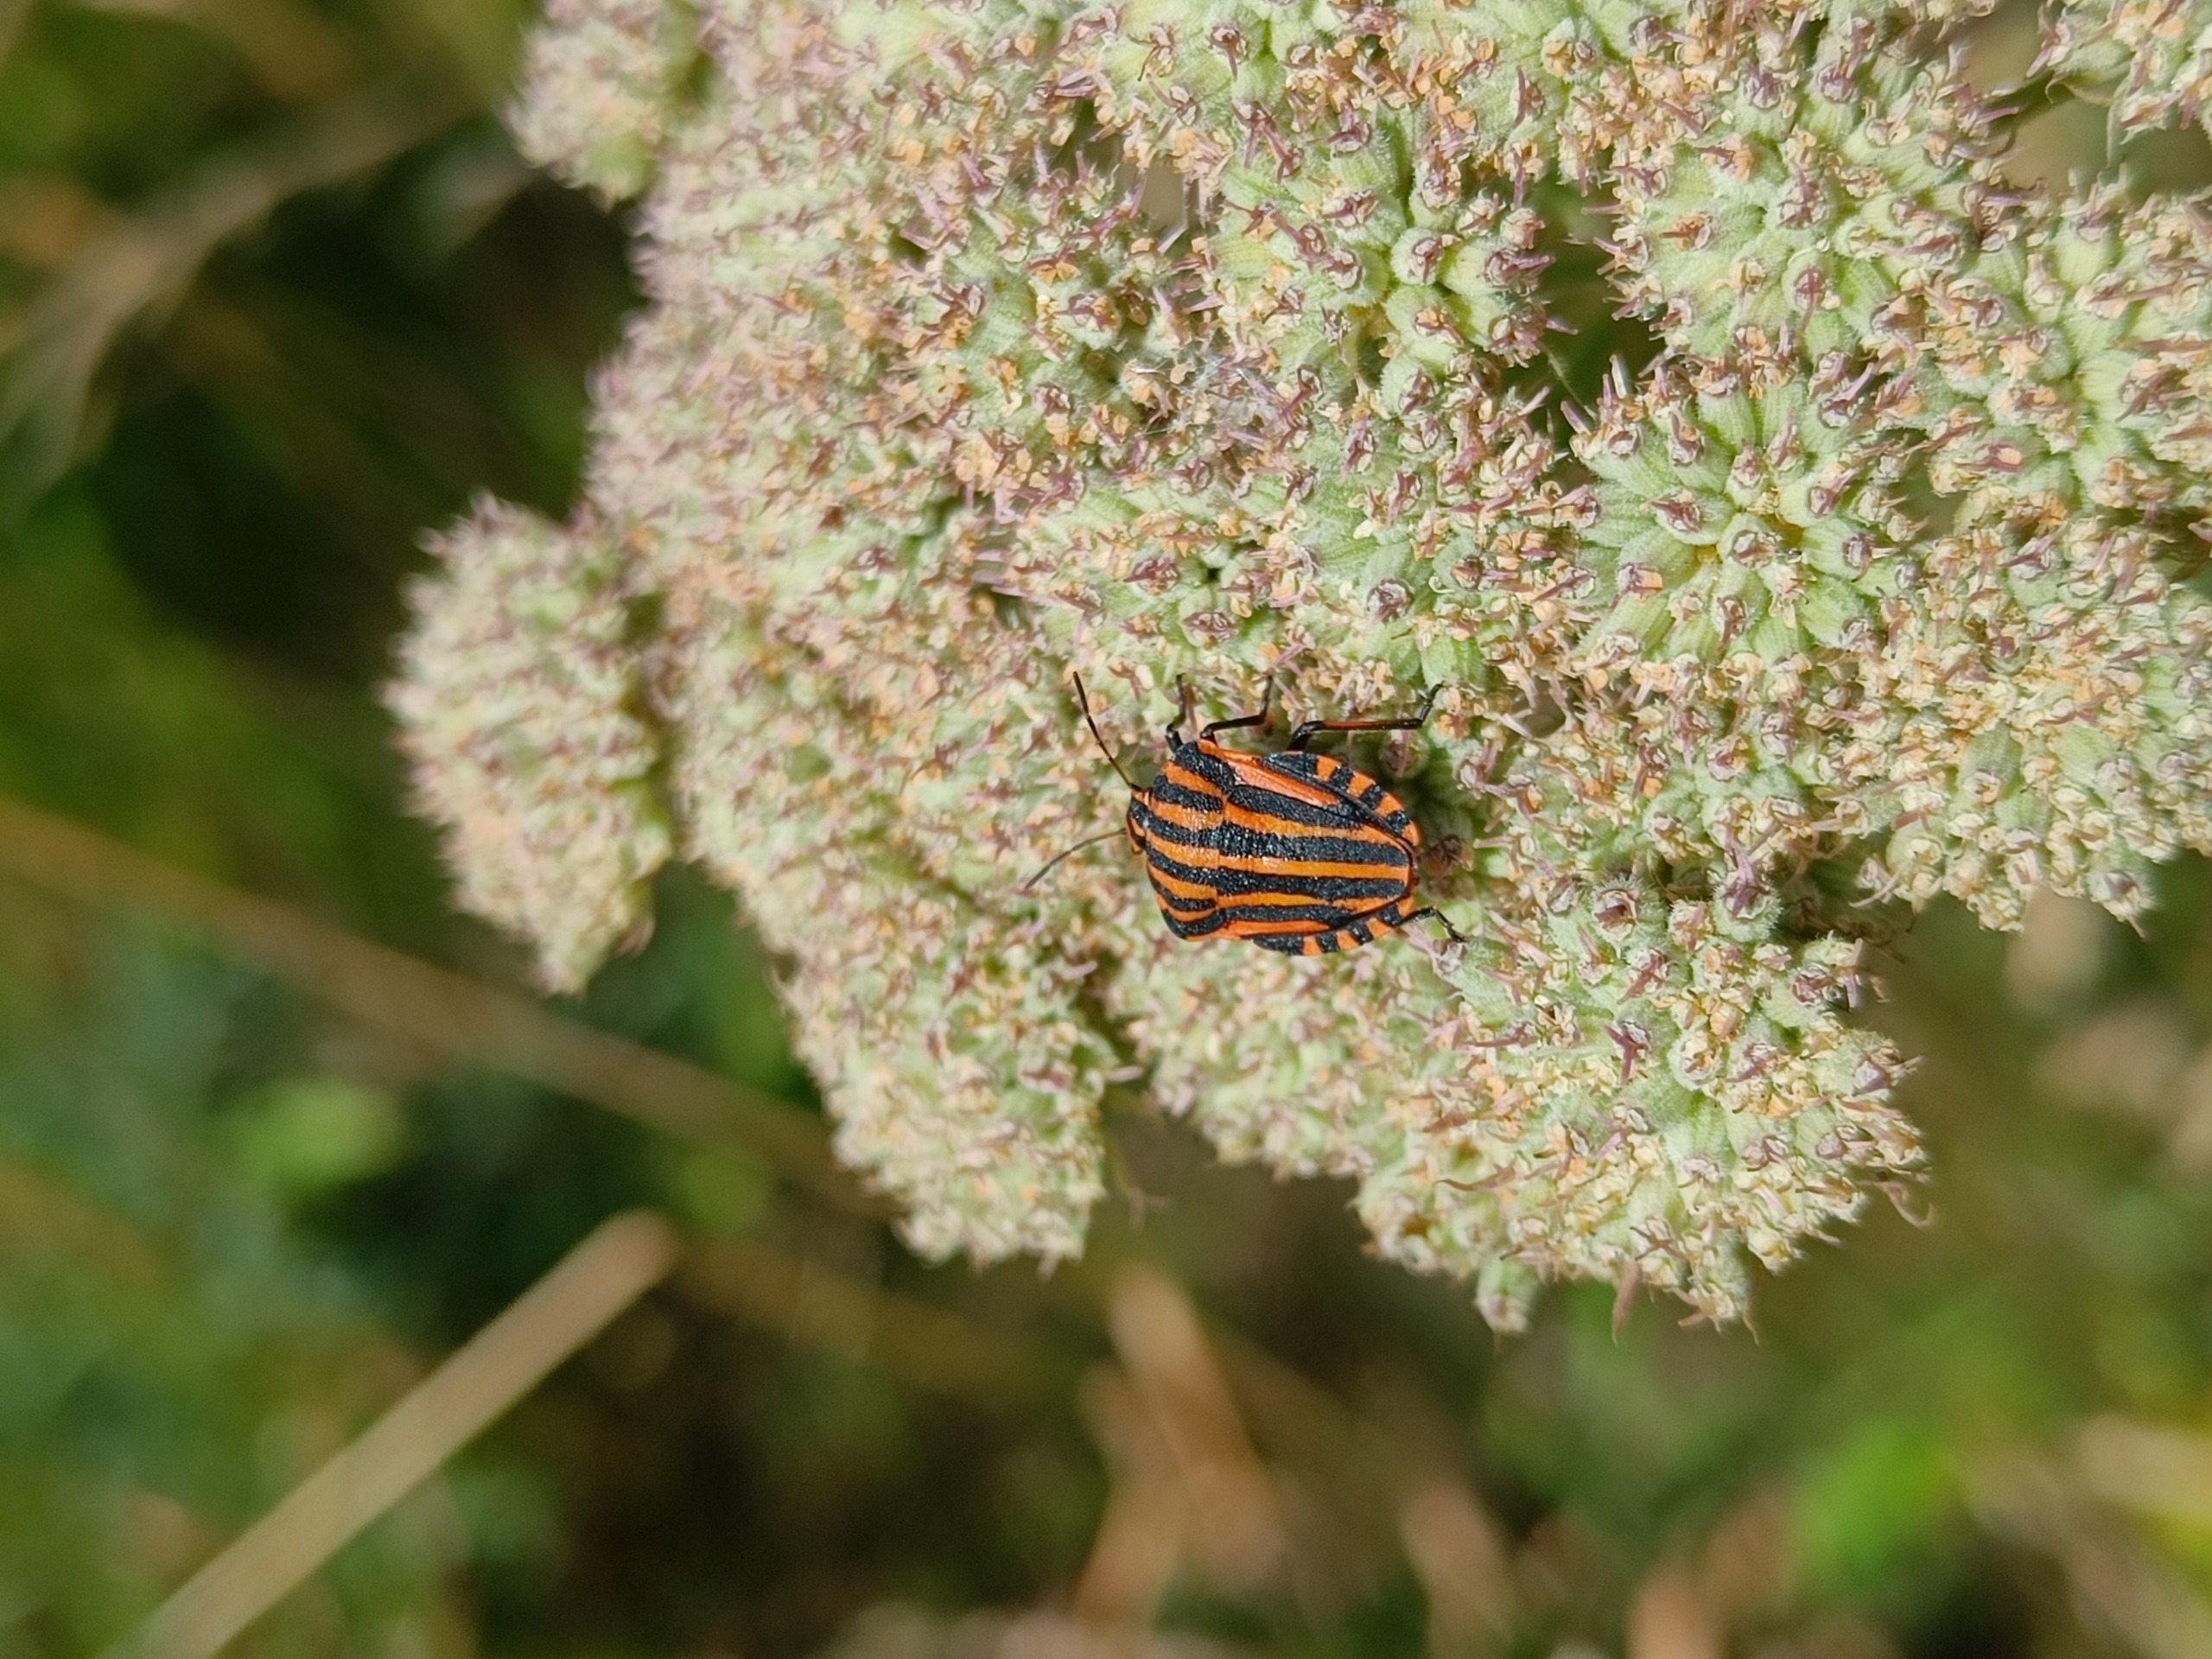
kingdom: Animalia
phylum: Arthropoda
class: Insecta
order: Hemiptera
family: Pentatomidae
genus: Graphosoma
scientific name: Graphosoma italicum
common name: Stribetæge
